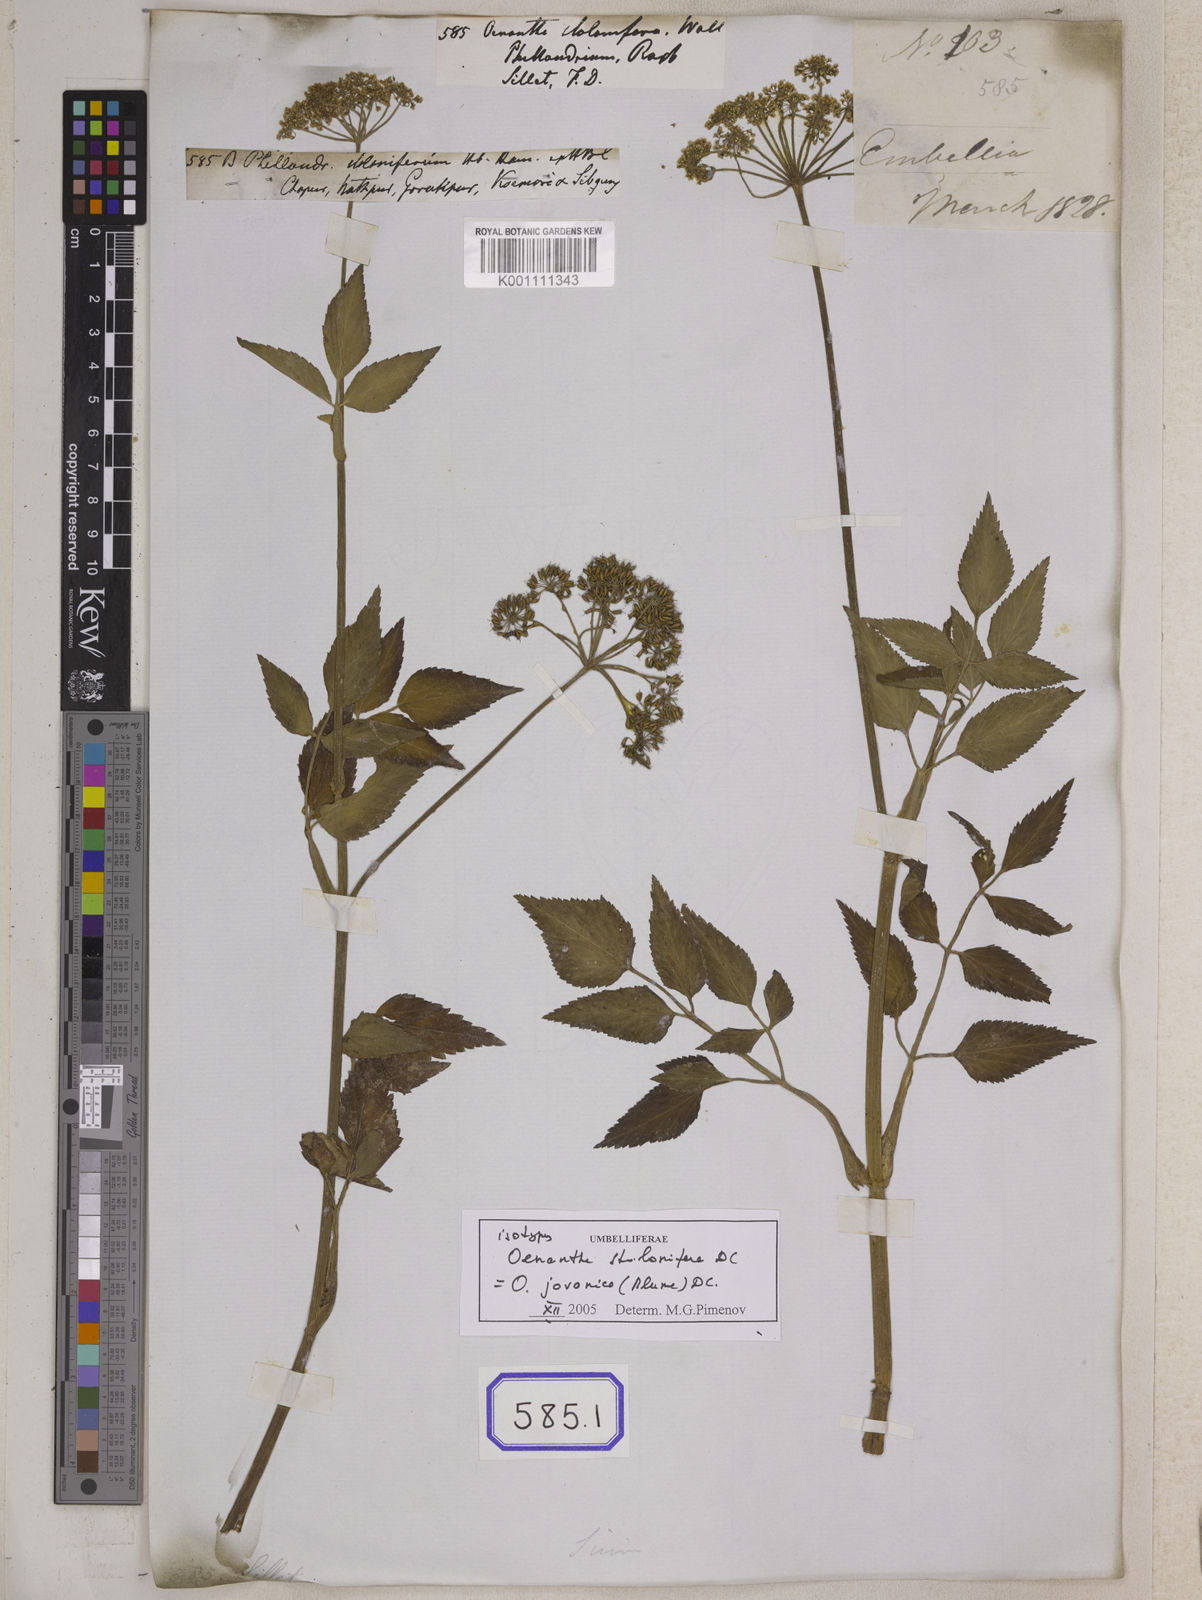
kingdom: Plantae
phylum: Tracheophyta
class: Magnoliopsida
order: Apiales
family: Apiaceae
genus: Oenanthe
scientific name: Oenanthe
